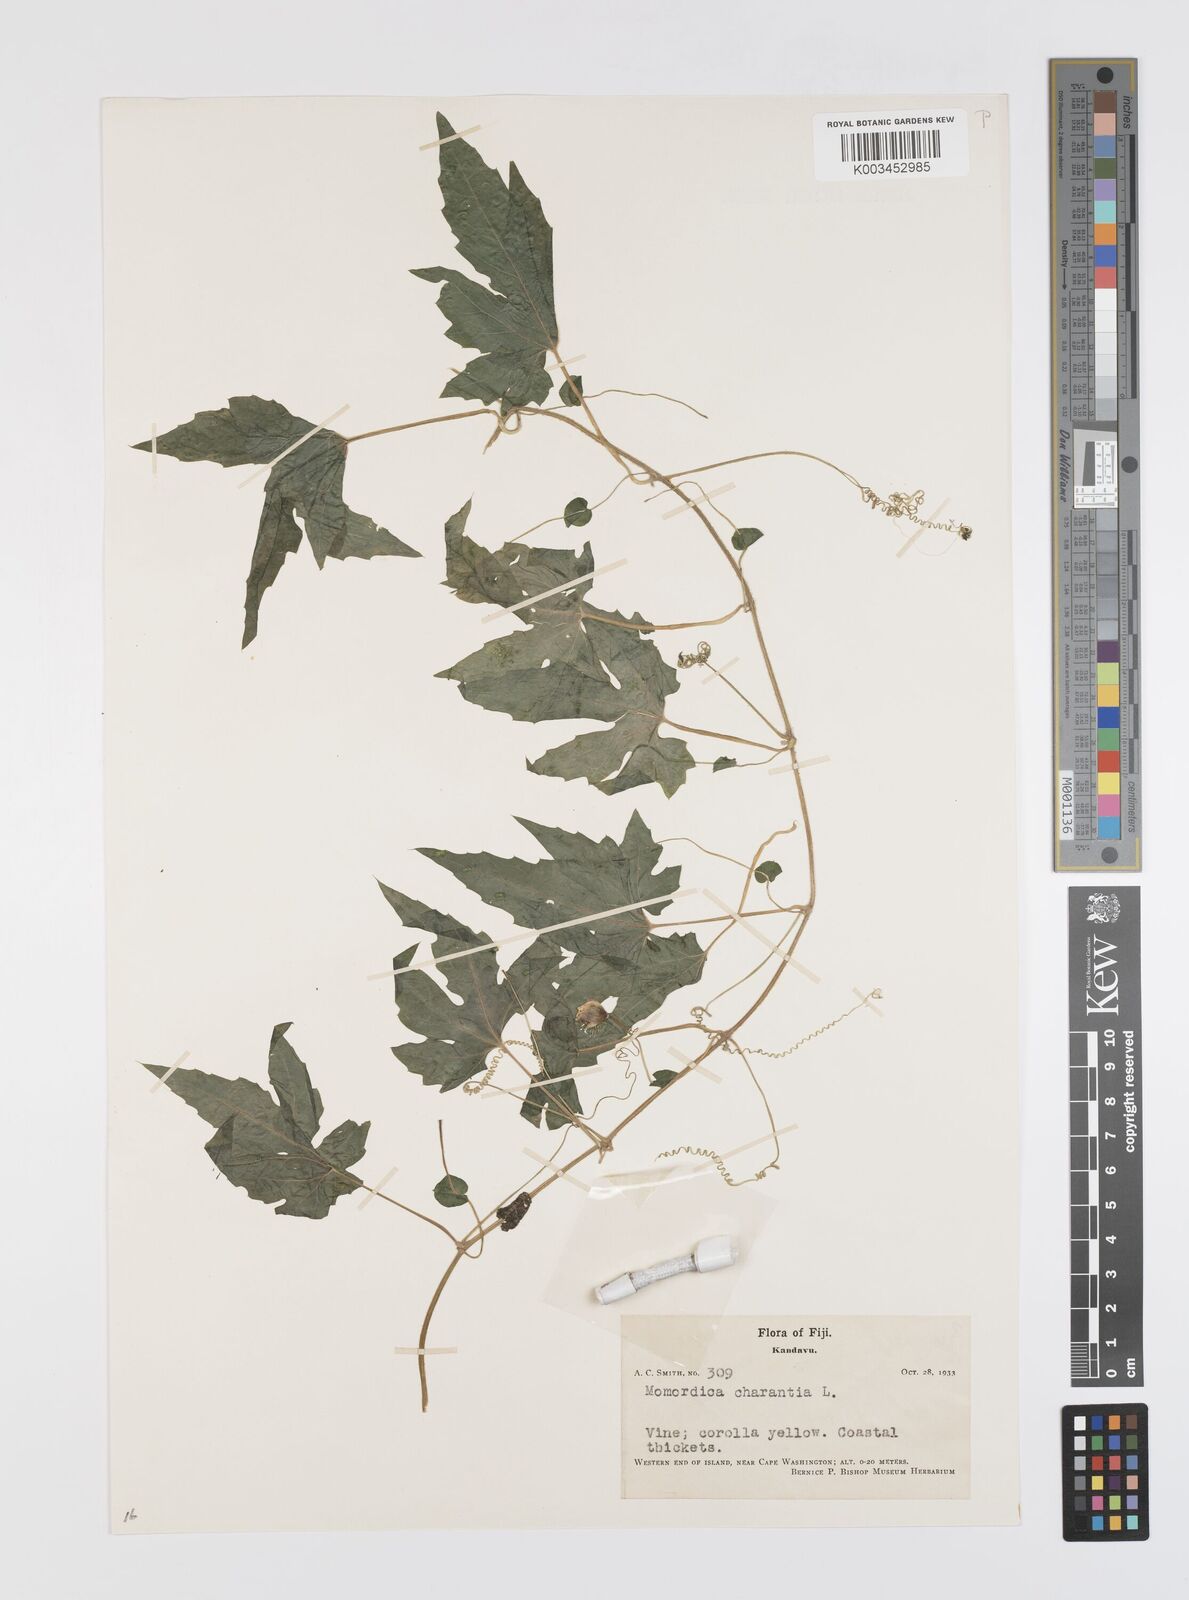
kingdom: Plantae
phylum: Tracheophyta
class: Magnoliopsida
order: Cucurbitales
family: Cucurbitaceae
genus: Momordica
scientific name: Momordica charantia
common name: Balsampear
